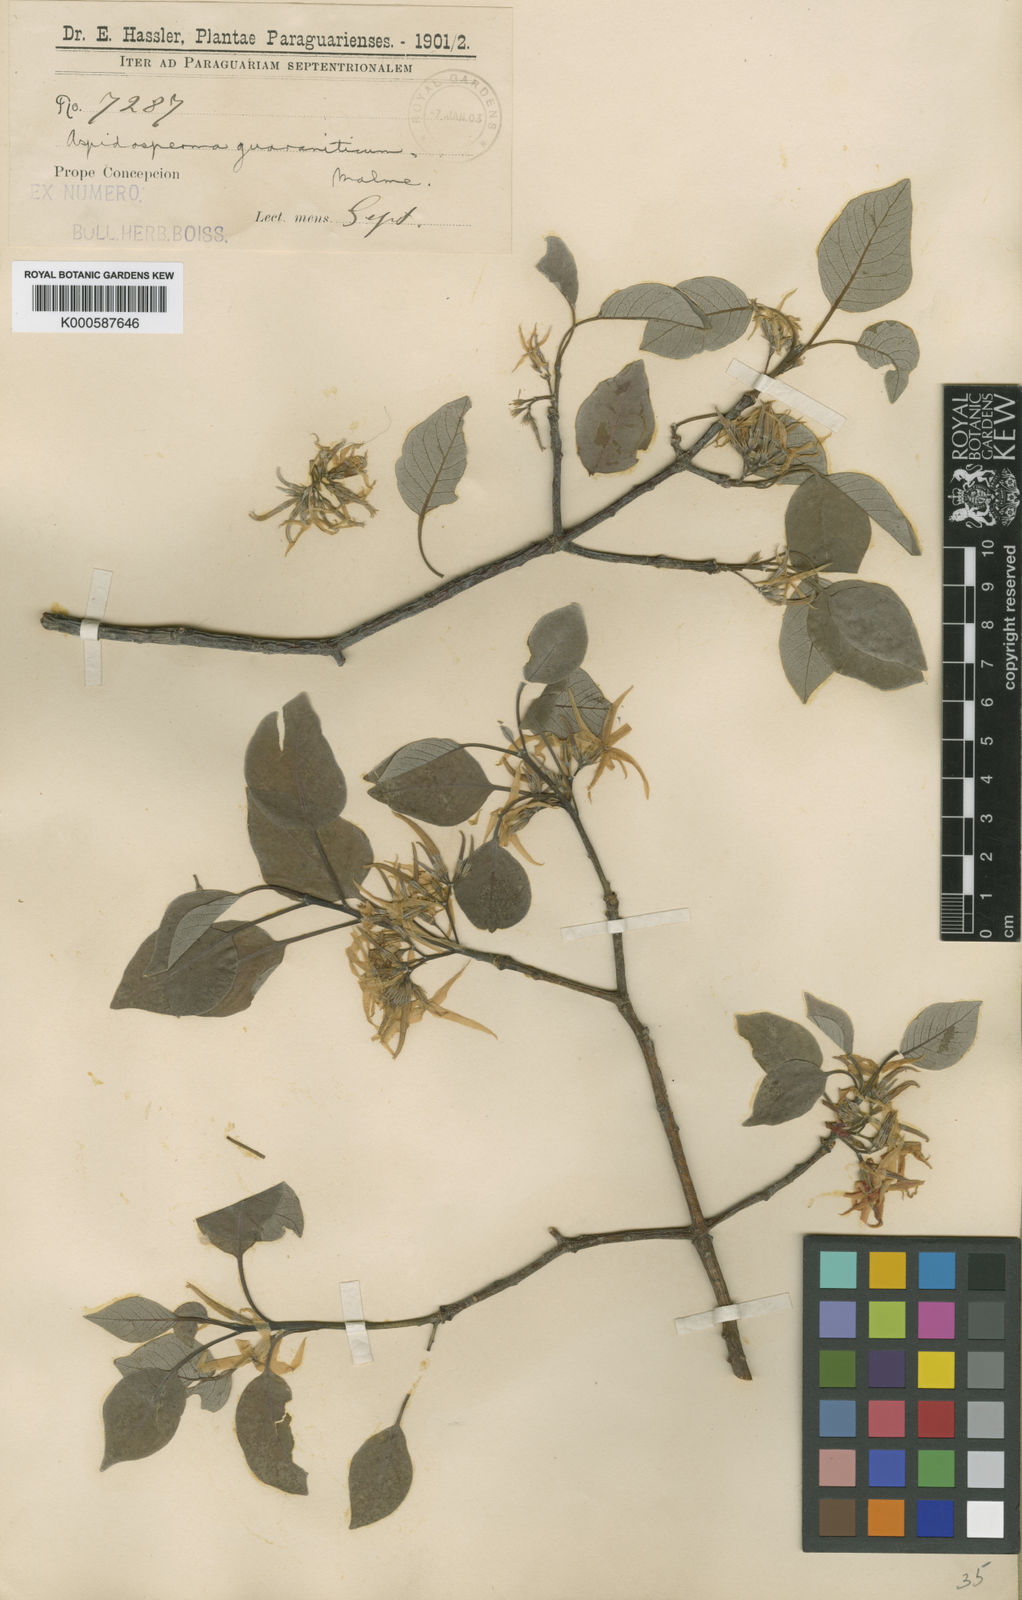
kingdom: Plantae
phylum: Tracheophyta
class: Magnoliopsida
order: Gentianales
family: Apocynaceae
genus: Aspidosperma
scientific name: Aspidosperma pyrifolium
